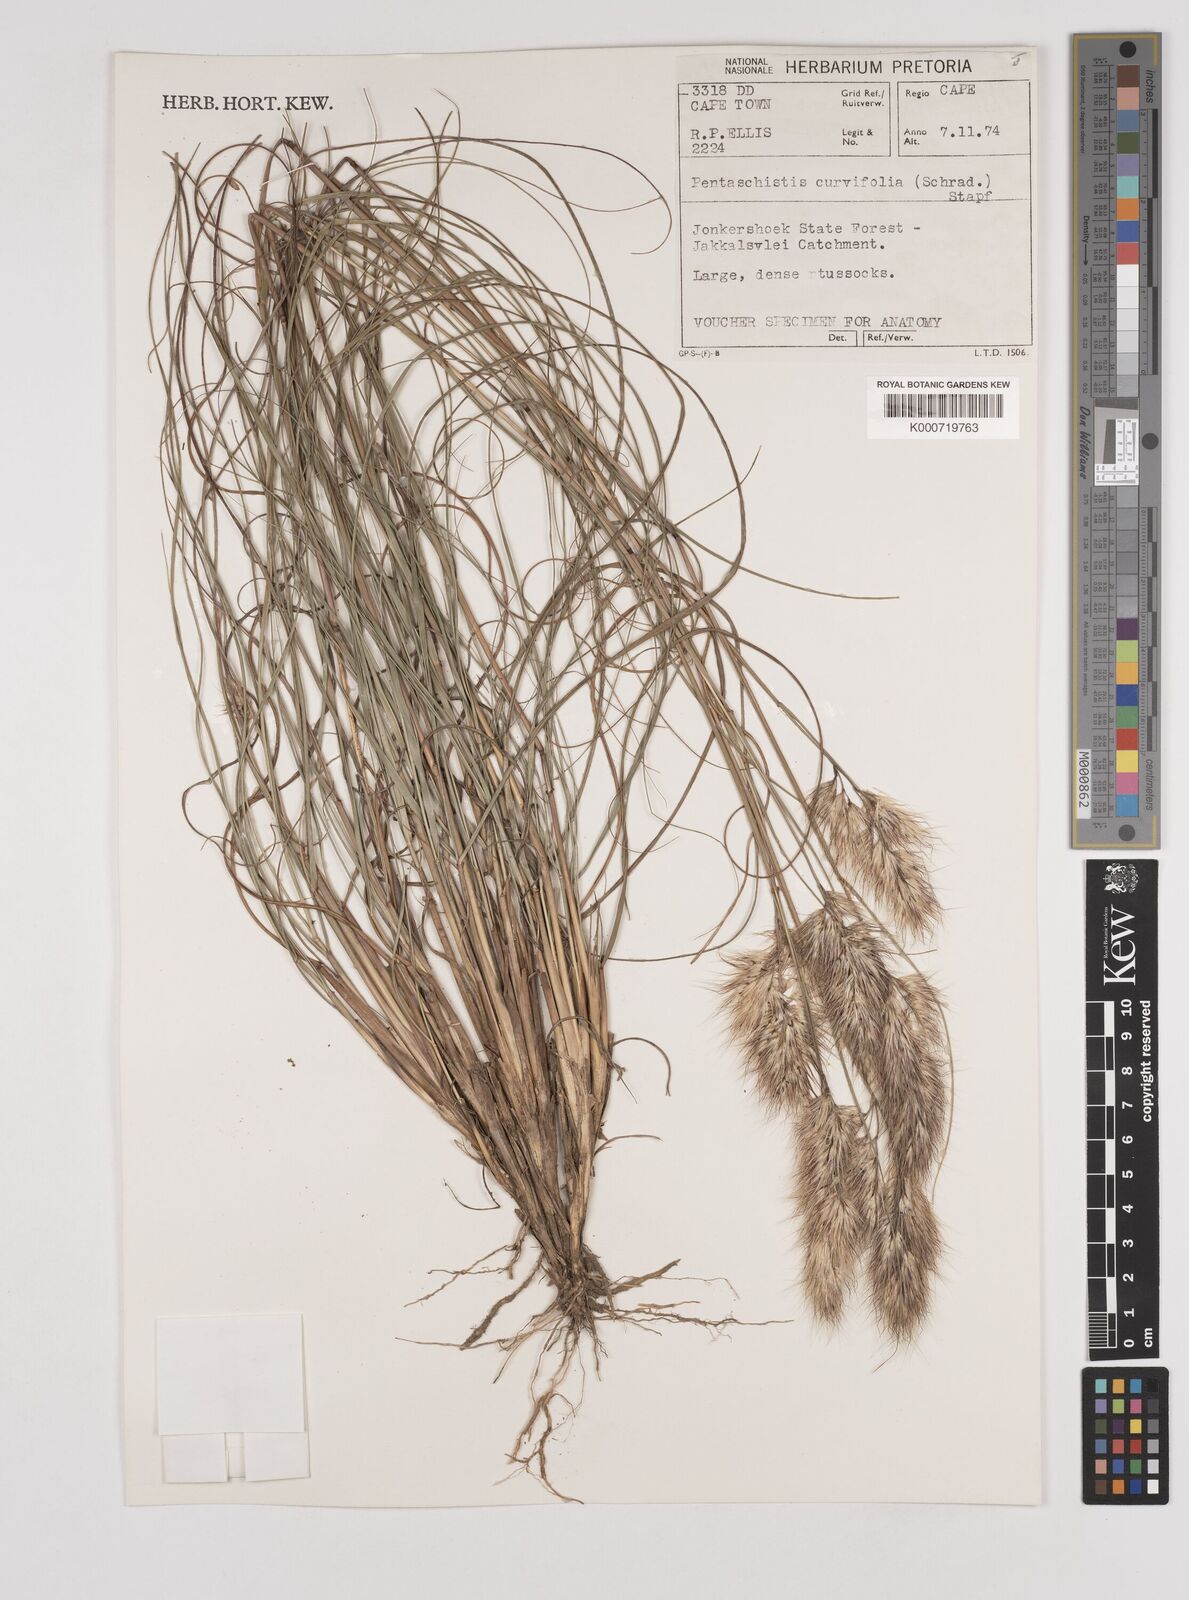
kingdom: Plantae
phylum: Tracheophyta
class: Liliopsida
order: Poales
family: Poaceae
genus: Pentameris
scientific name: Pentameris curvifolia
